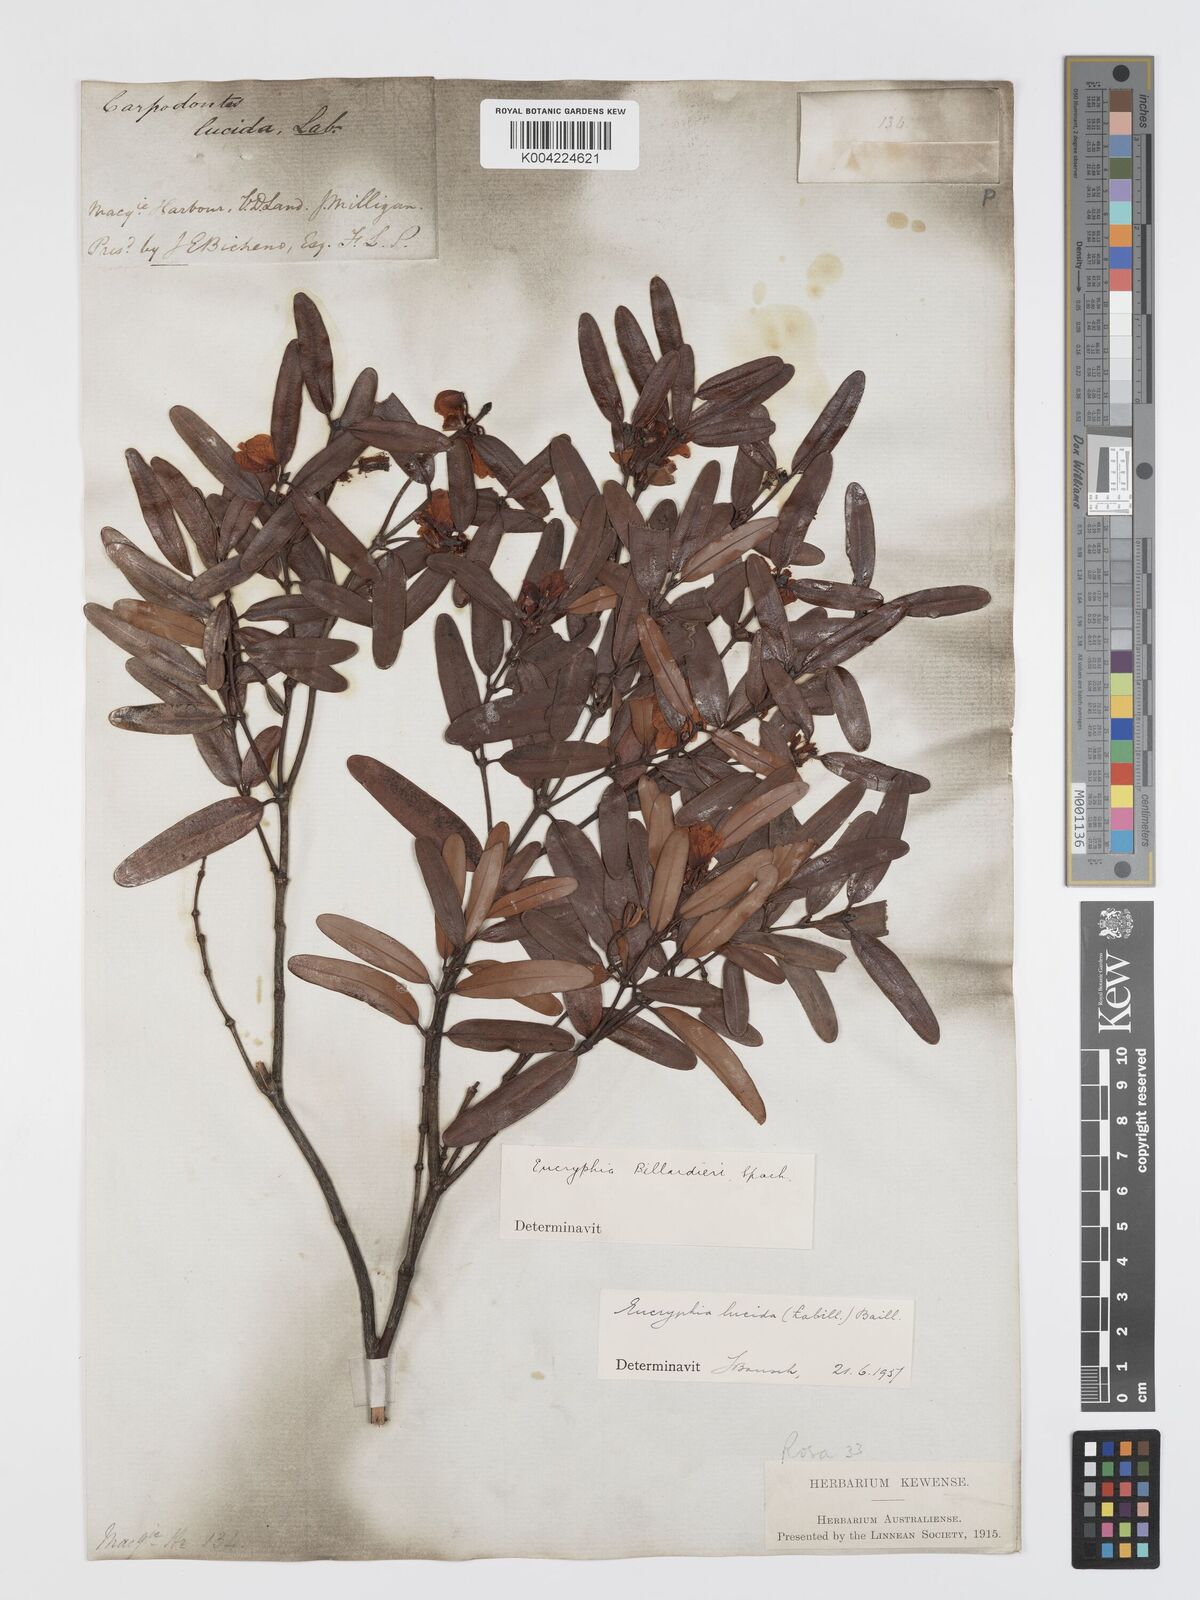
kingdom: Plantae
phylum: Tracheophyta
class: Magnoliopsida
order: Oxalidales
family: Cunoniaceae
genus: Eucryphia
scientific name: Eucryphia lucida
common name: Leatherwood
